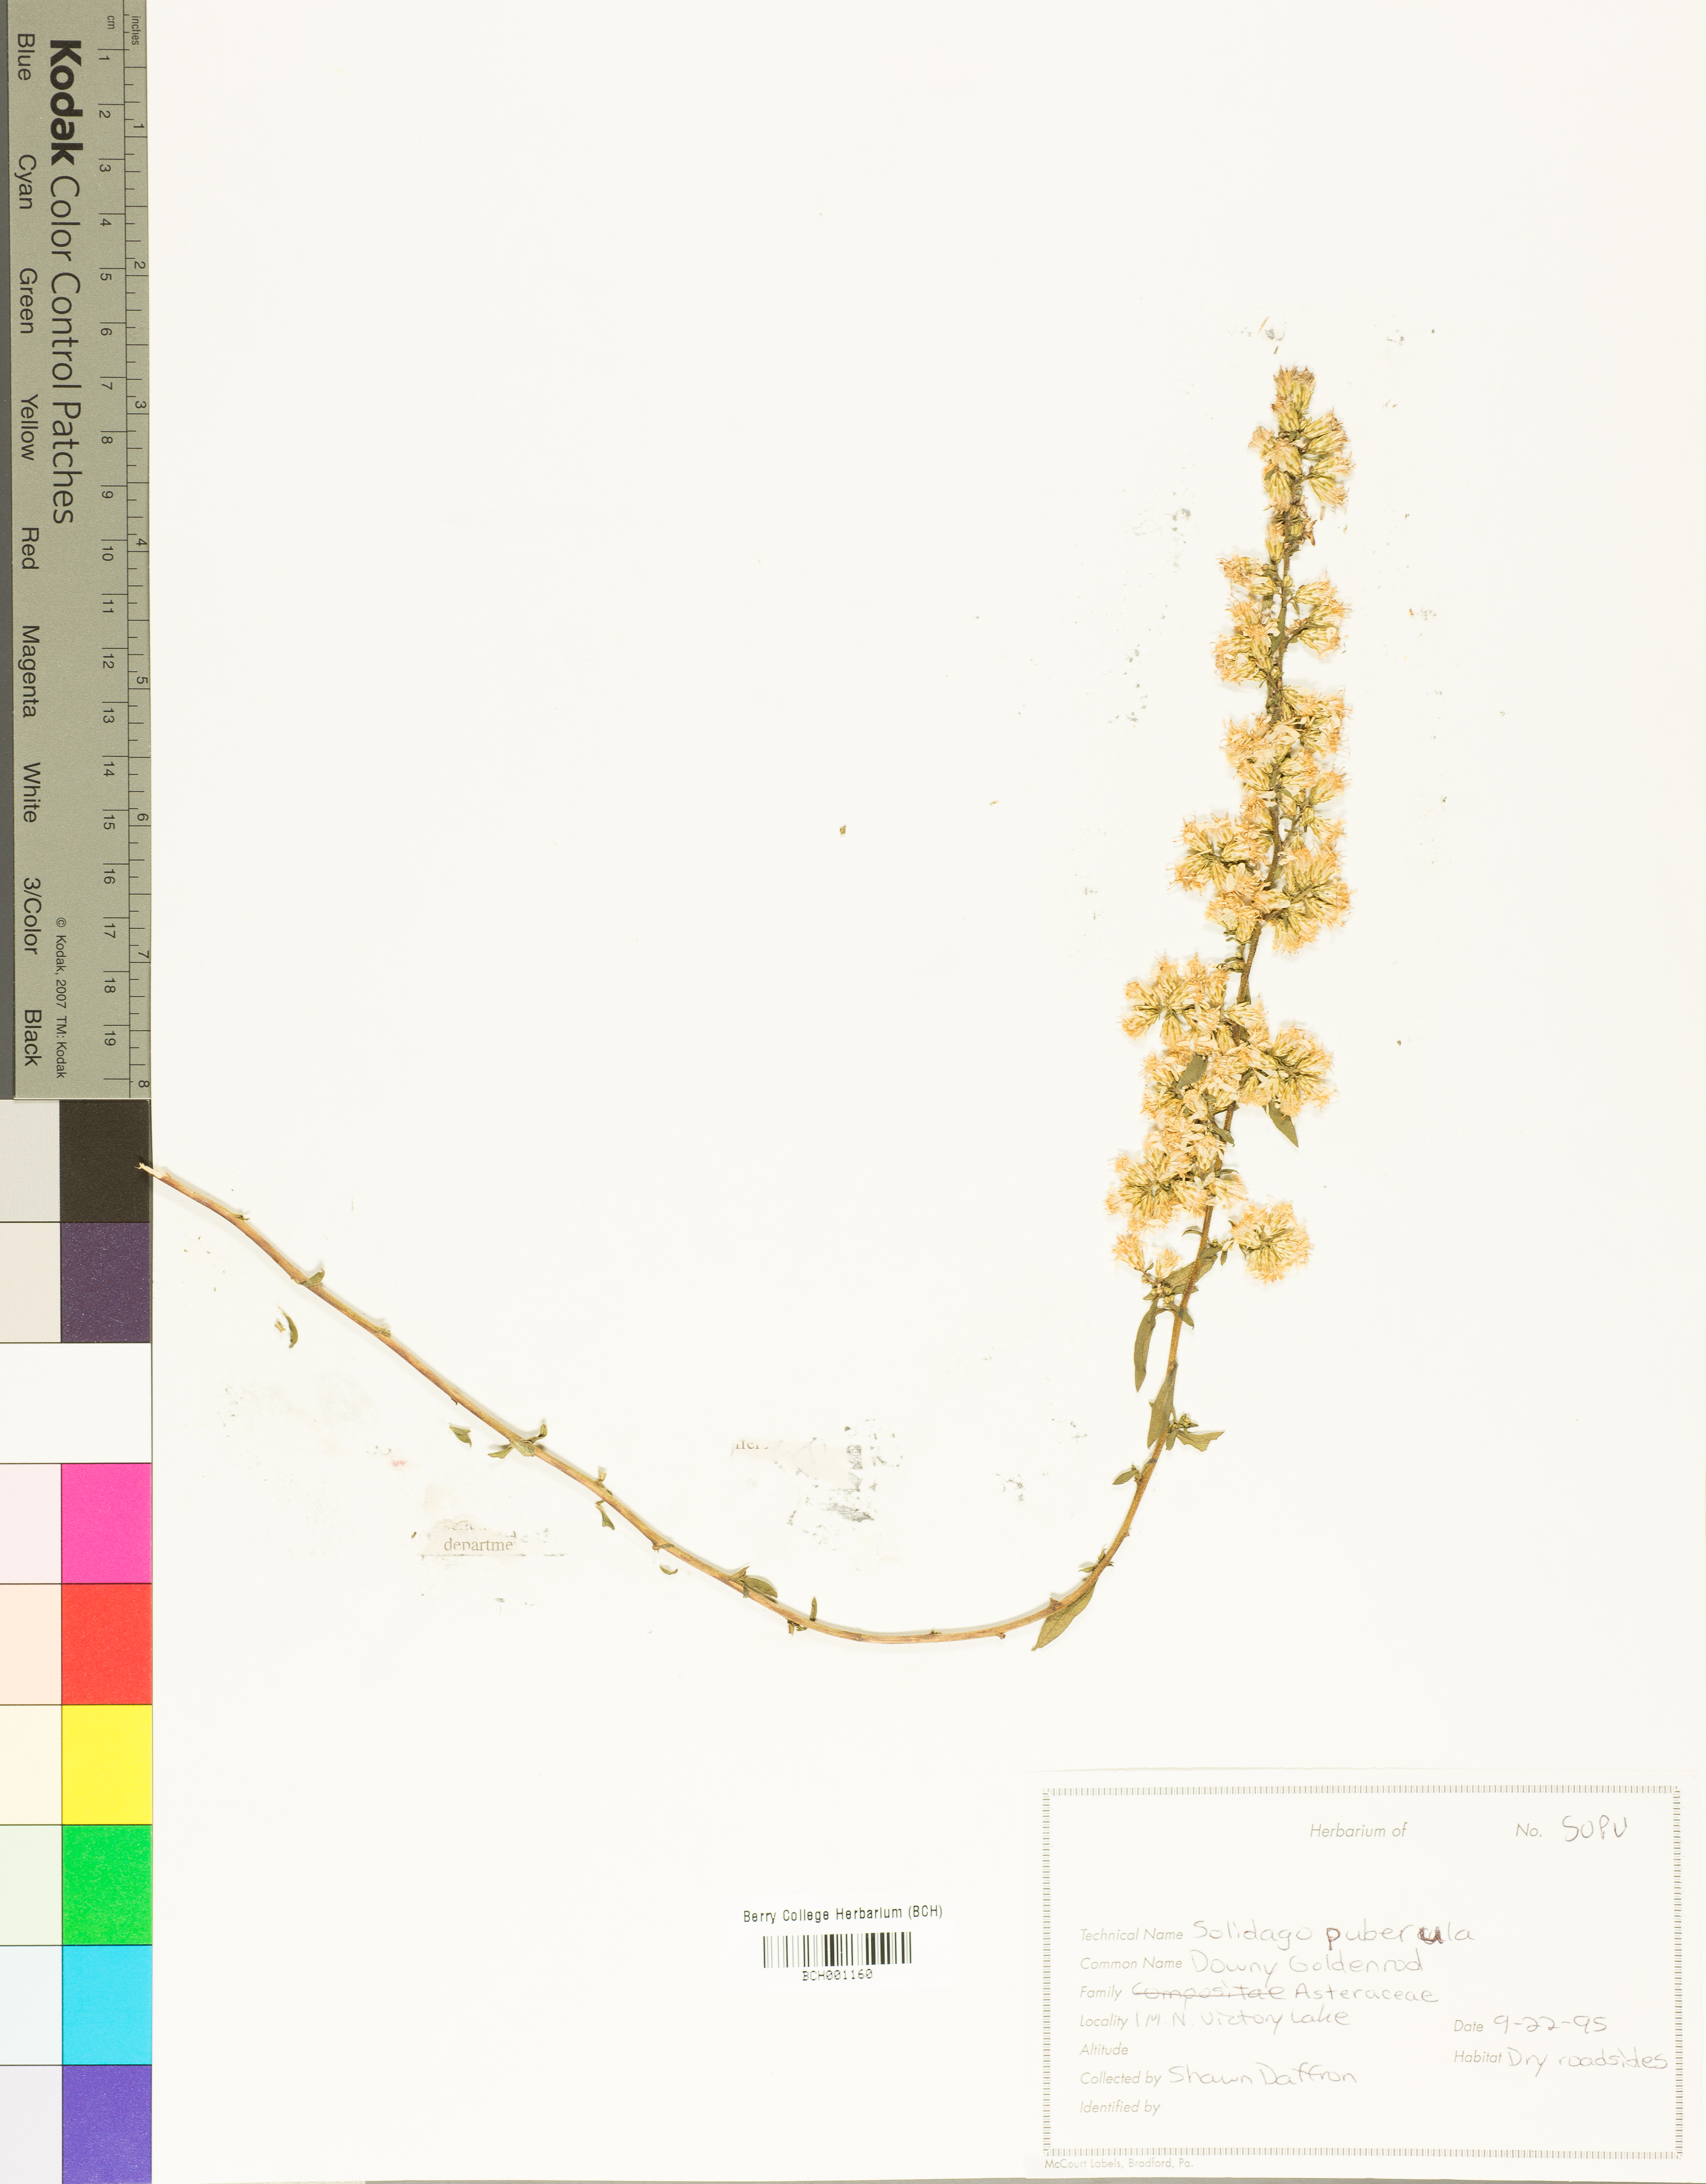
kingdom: Plantae
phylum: Tracheophyta
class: Magnoliopsida
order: Asterales
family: Asteraceae
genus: Solidago
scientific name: Solidago puberula
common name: Downy goldenrod
